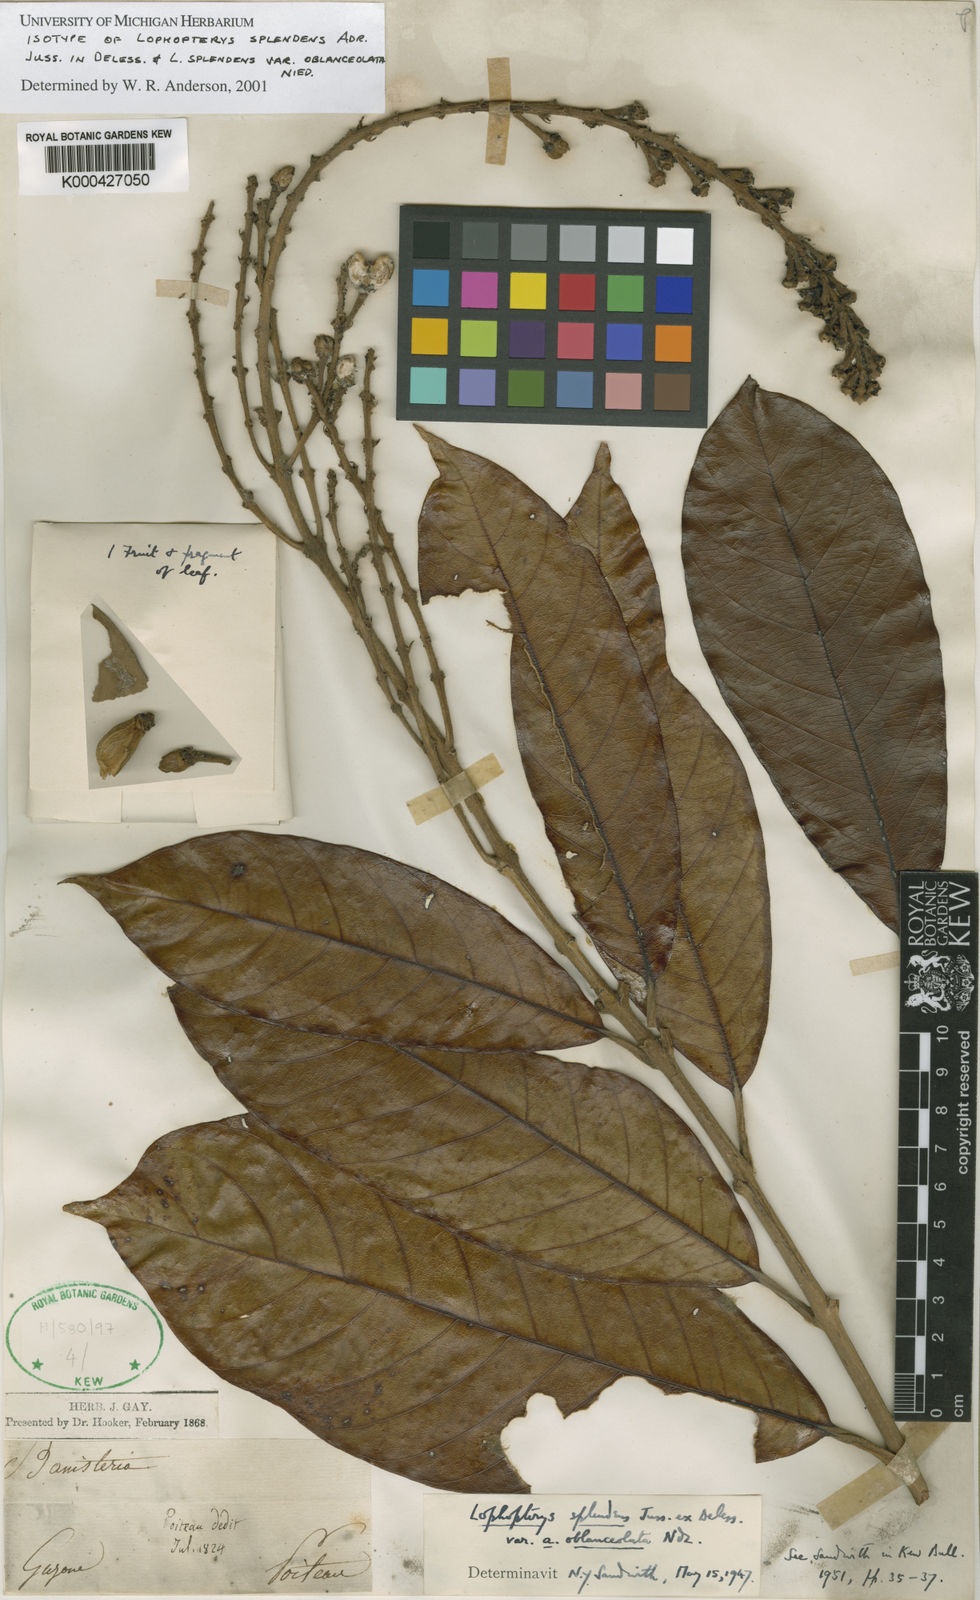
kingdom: Plantae
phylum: Tracheophyta
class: Magnoliopsida
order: Malpighiales
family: Malpighiaceae
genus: Lophopterys
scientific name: Lophopterys splendens
